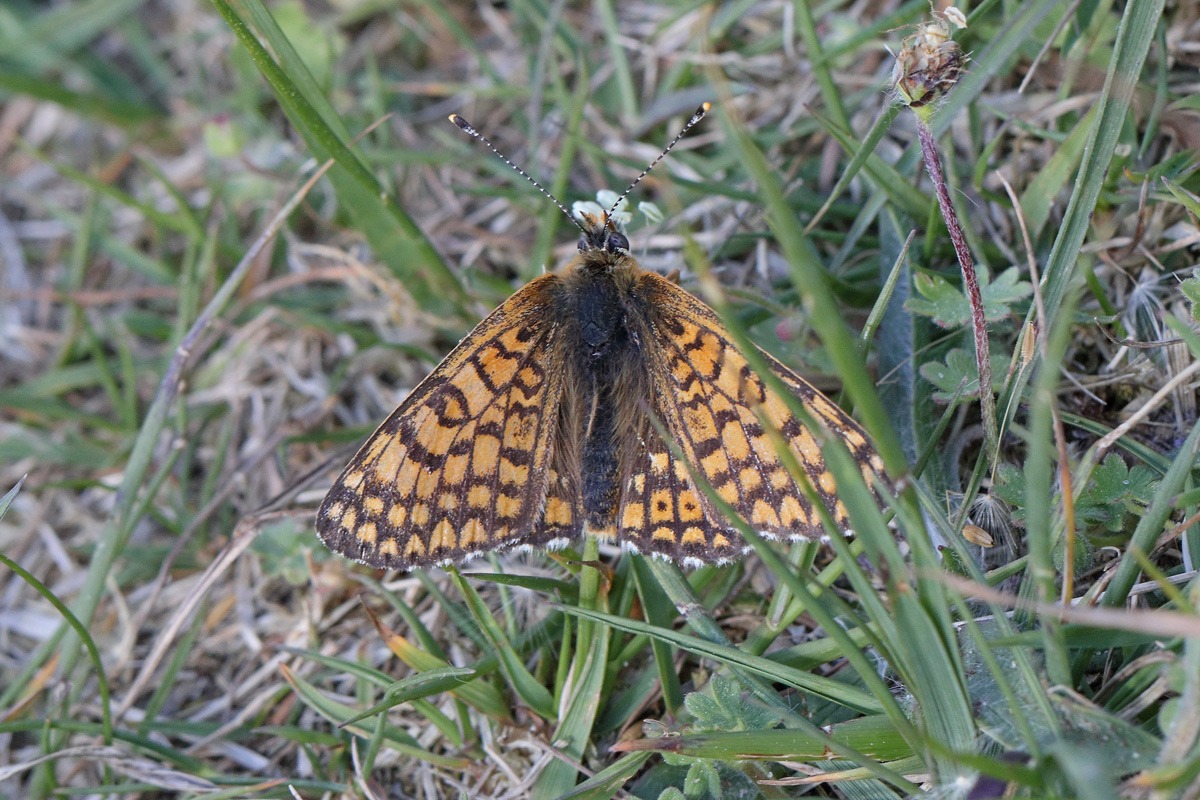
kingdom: Animalia
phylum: Arthropoda
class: Insecta
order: Lepidoptera
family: Nymphalidae
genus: Melitaea
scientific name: Melitaea cinxia
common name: Okkergul pletvinge
